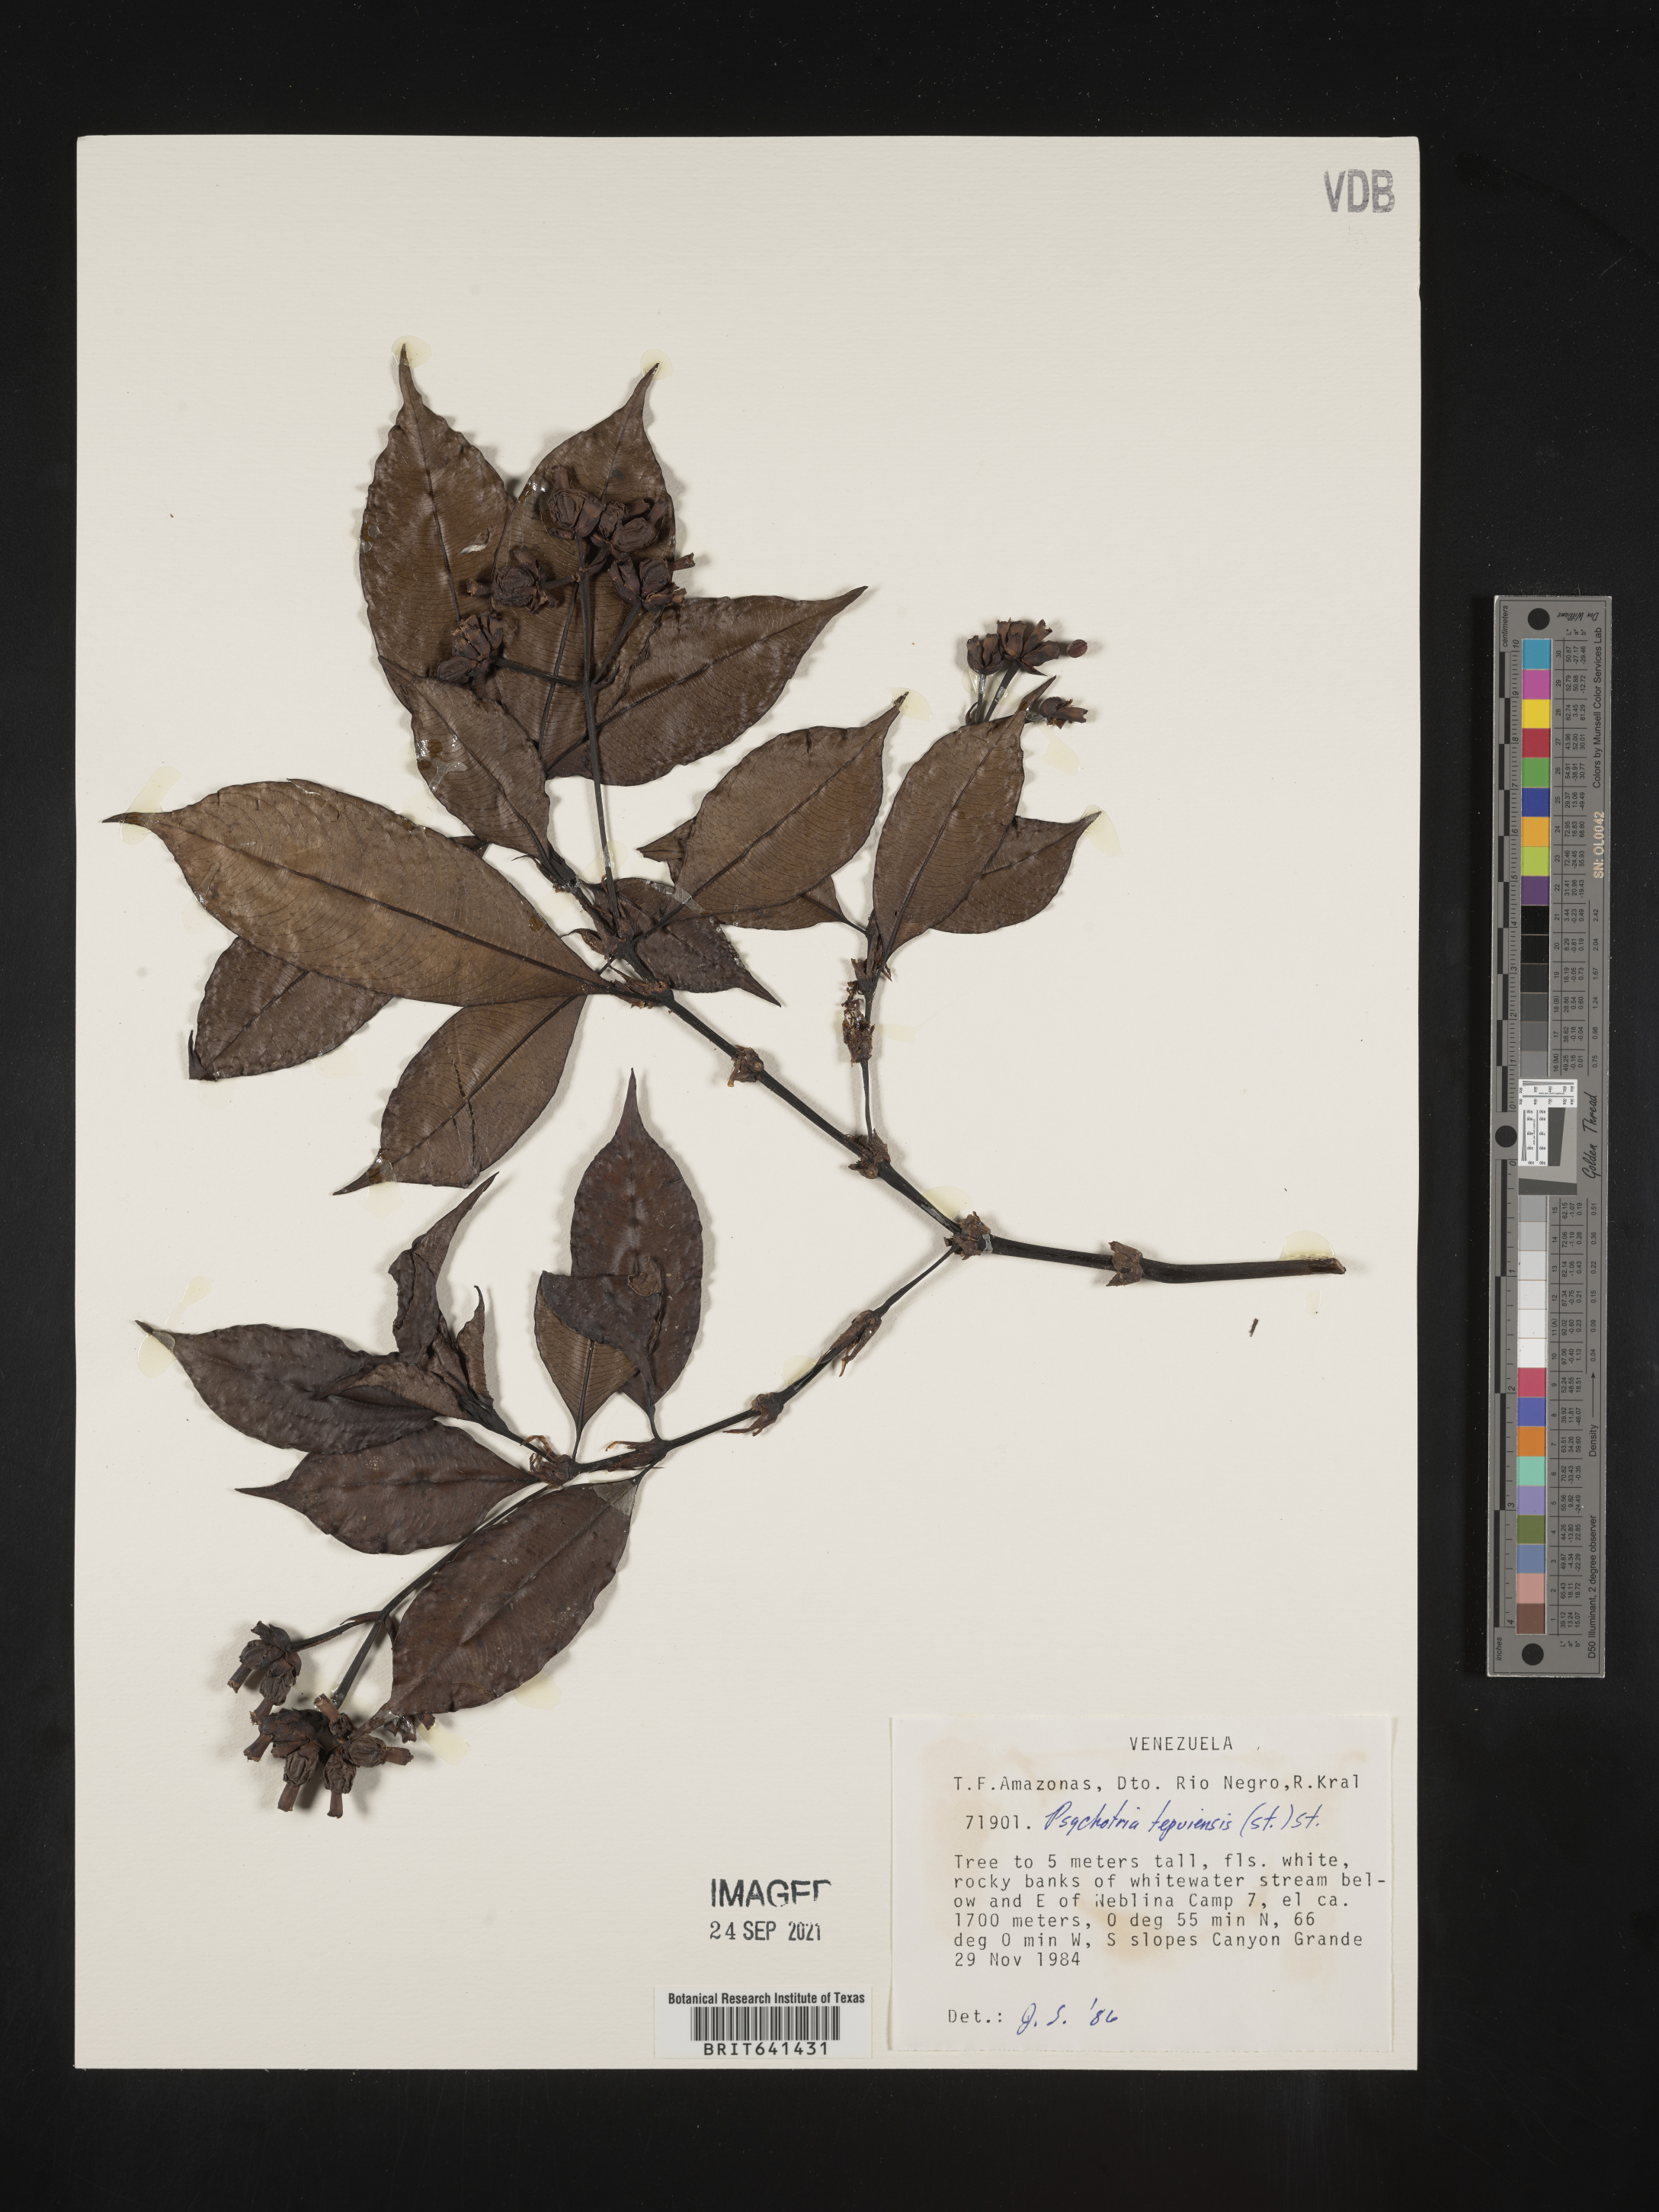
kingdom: Plantae
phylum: Tracheophyta
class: Magnoliopsida
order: Gentianales
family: Rubiaceae
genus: Psychotria
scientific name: Psychotria
